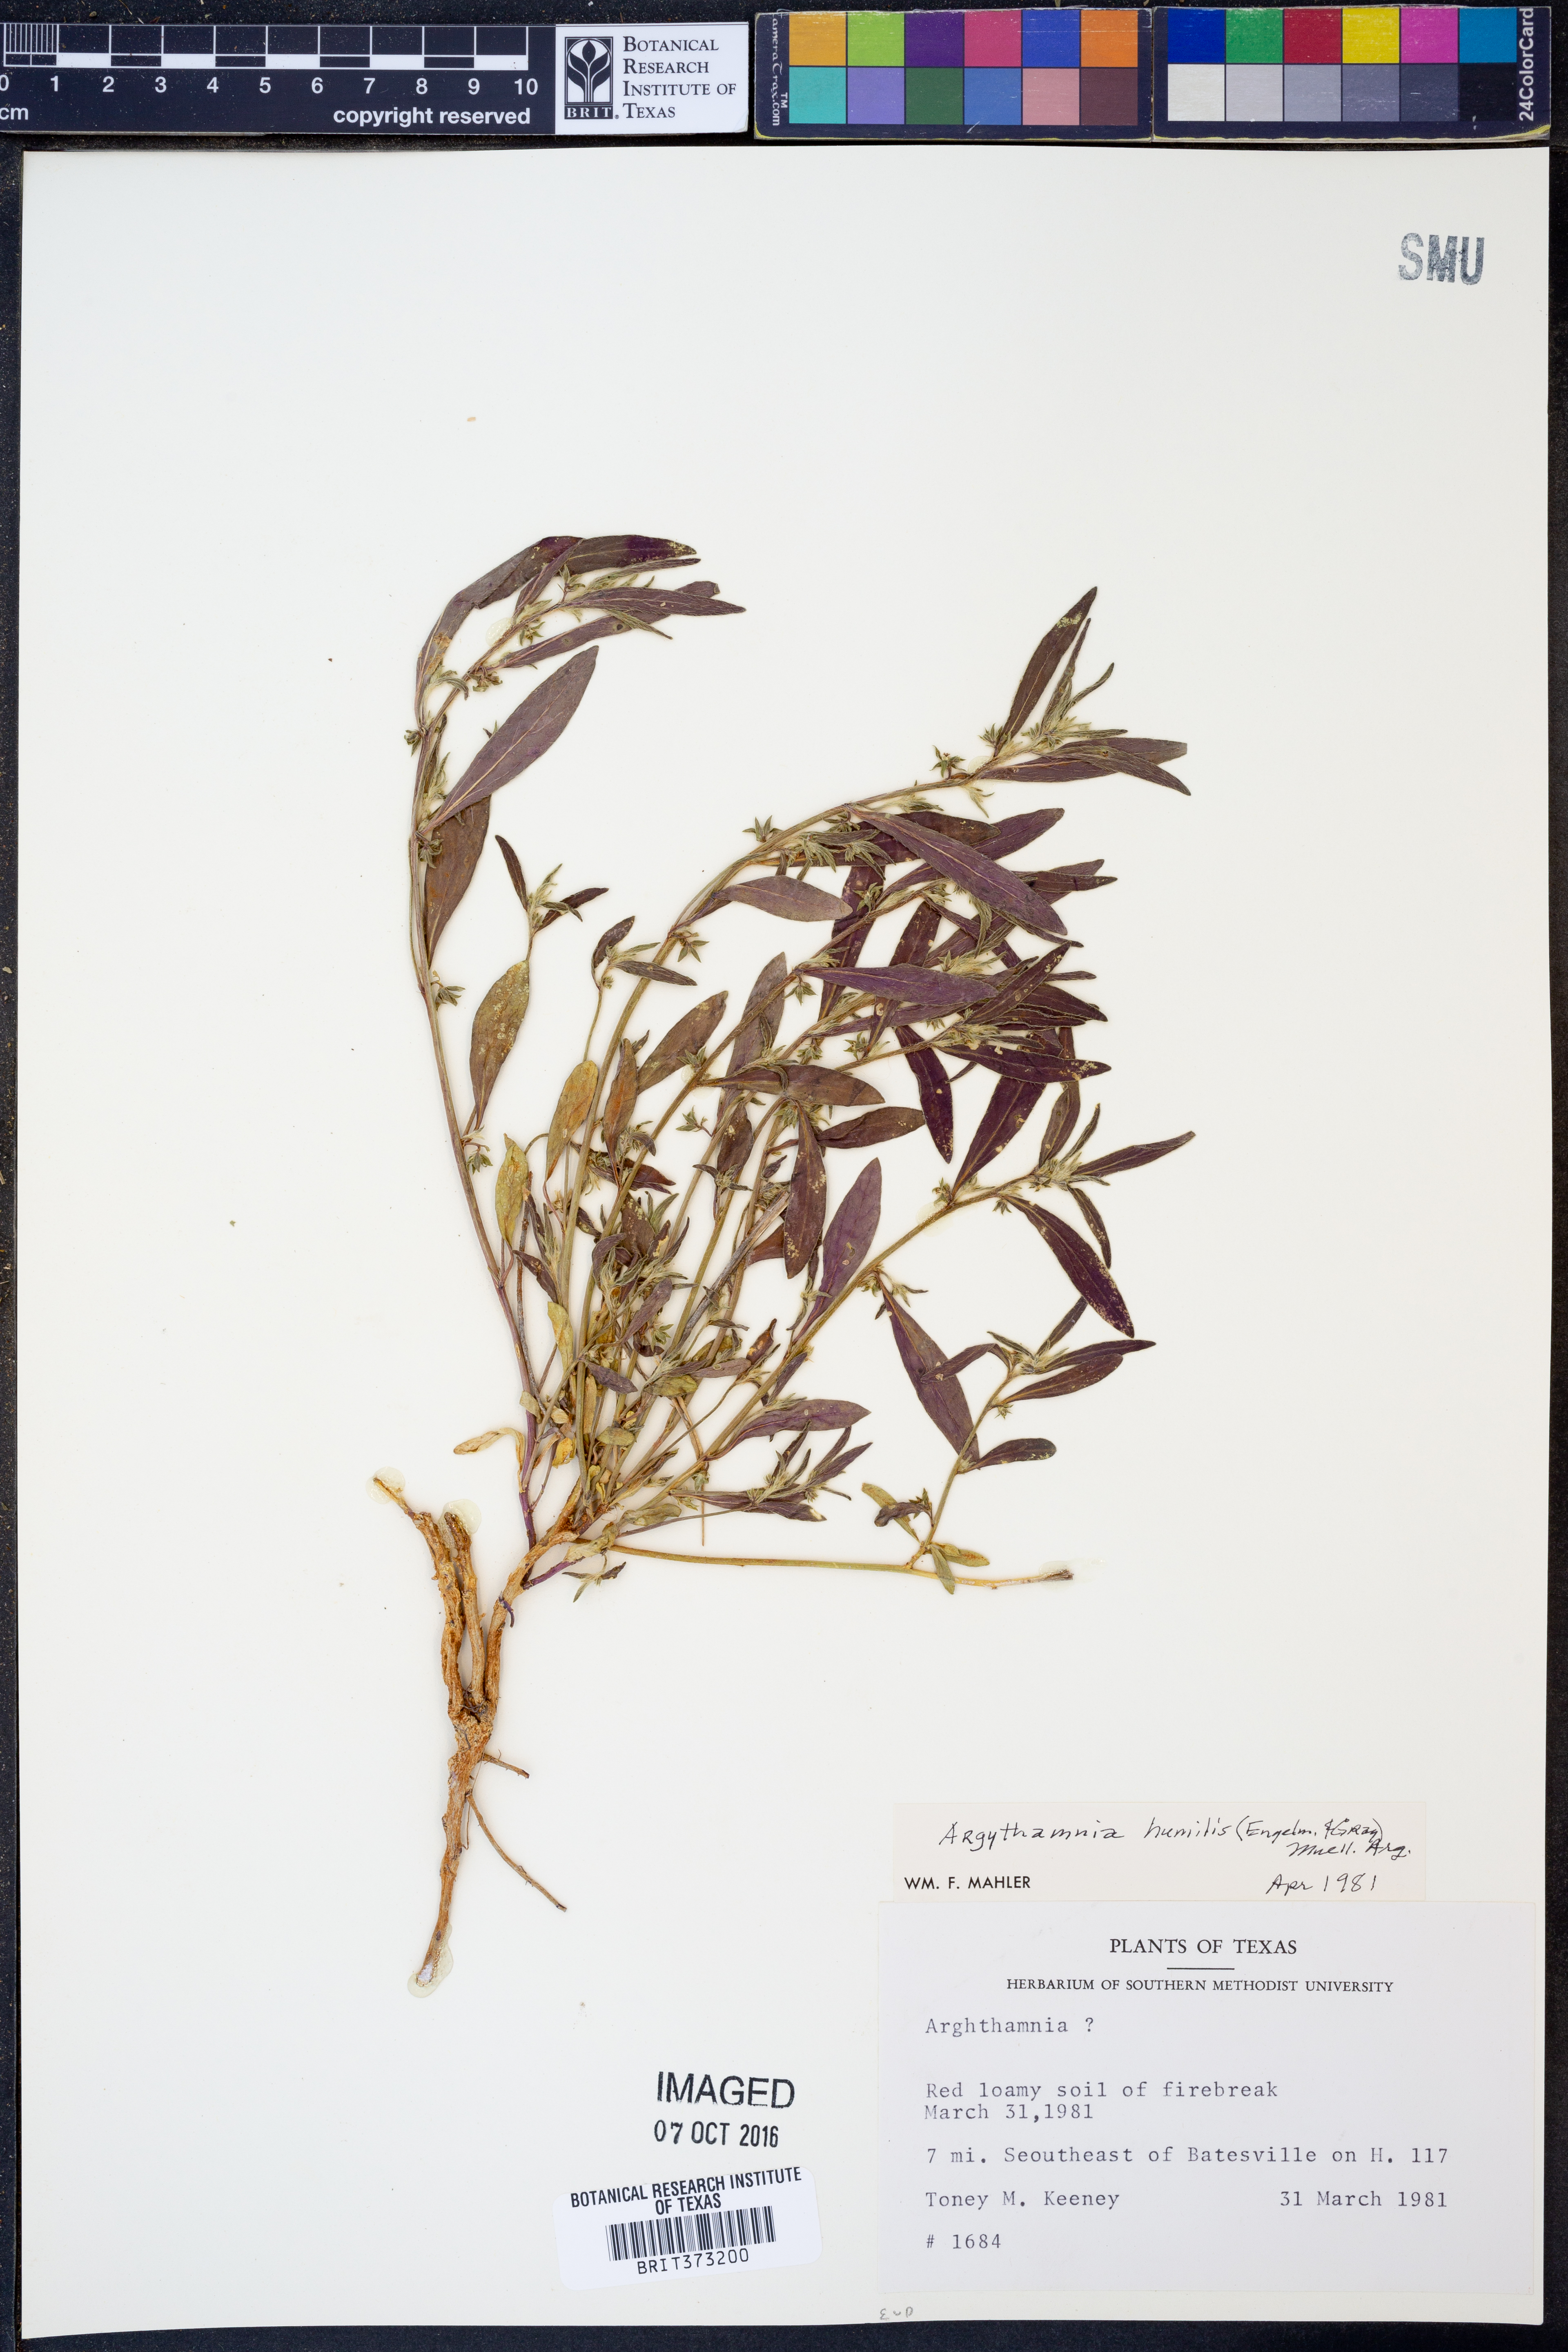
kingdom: Plantae
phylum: Tracheophyta
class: Magnoliopsida
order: Malpighiales
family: Euphorbiaceae
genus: Ditaxis
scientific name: Ditaxis humilis
